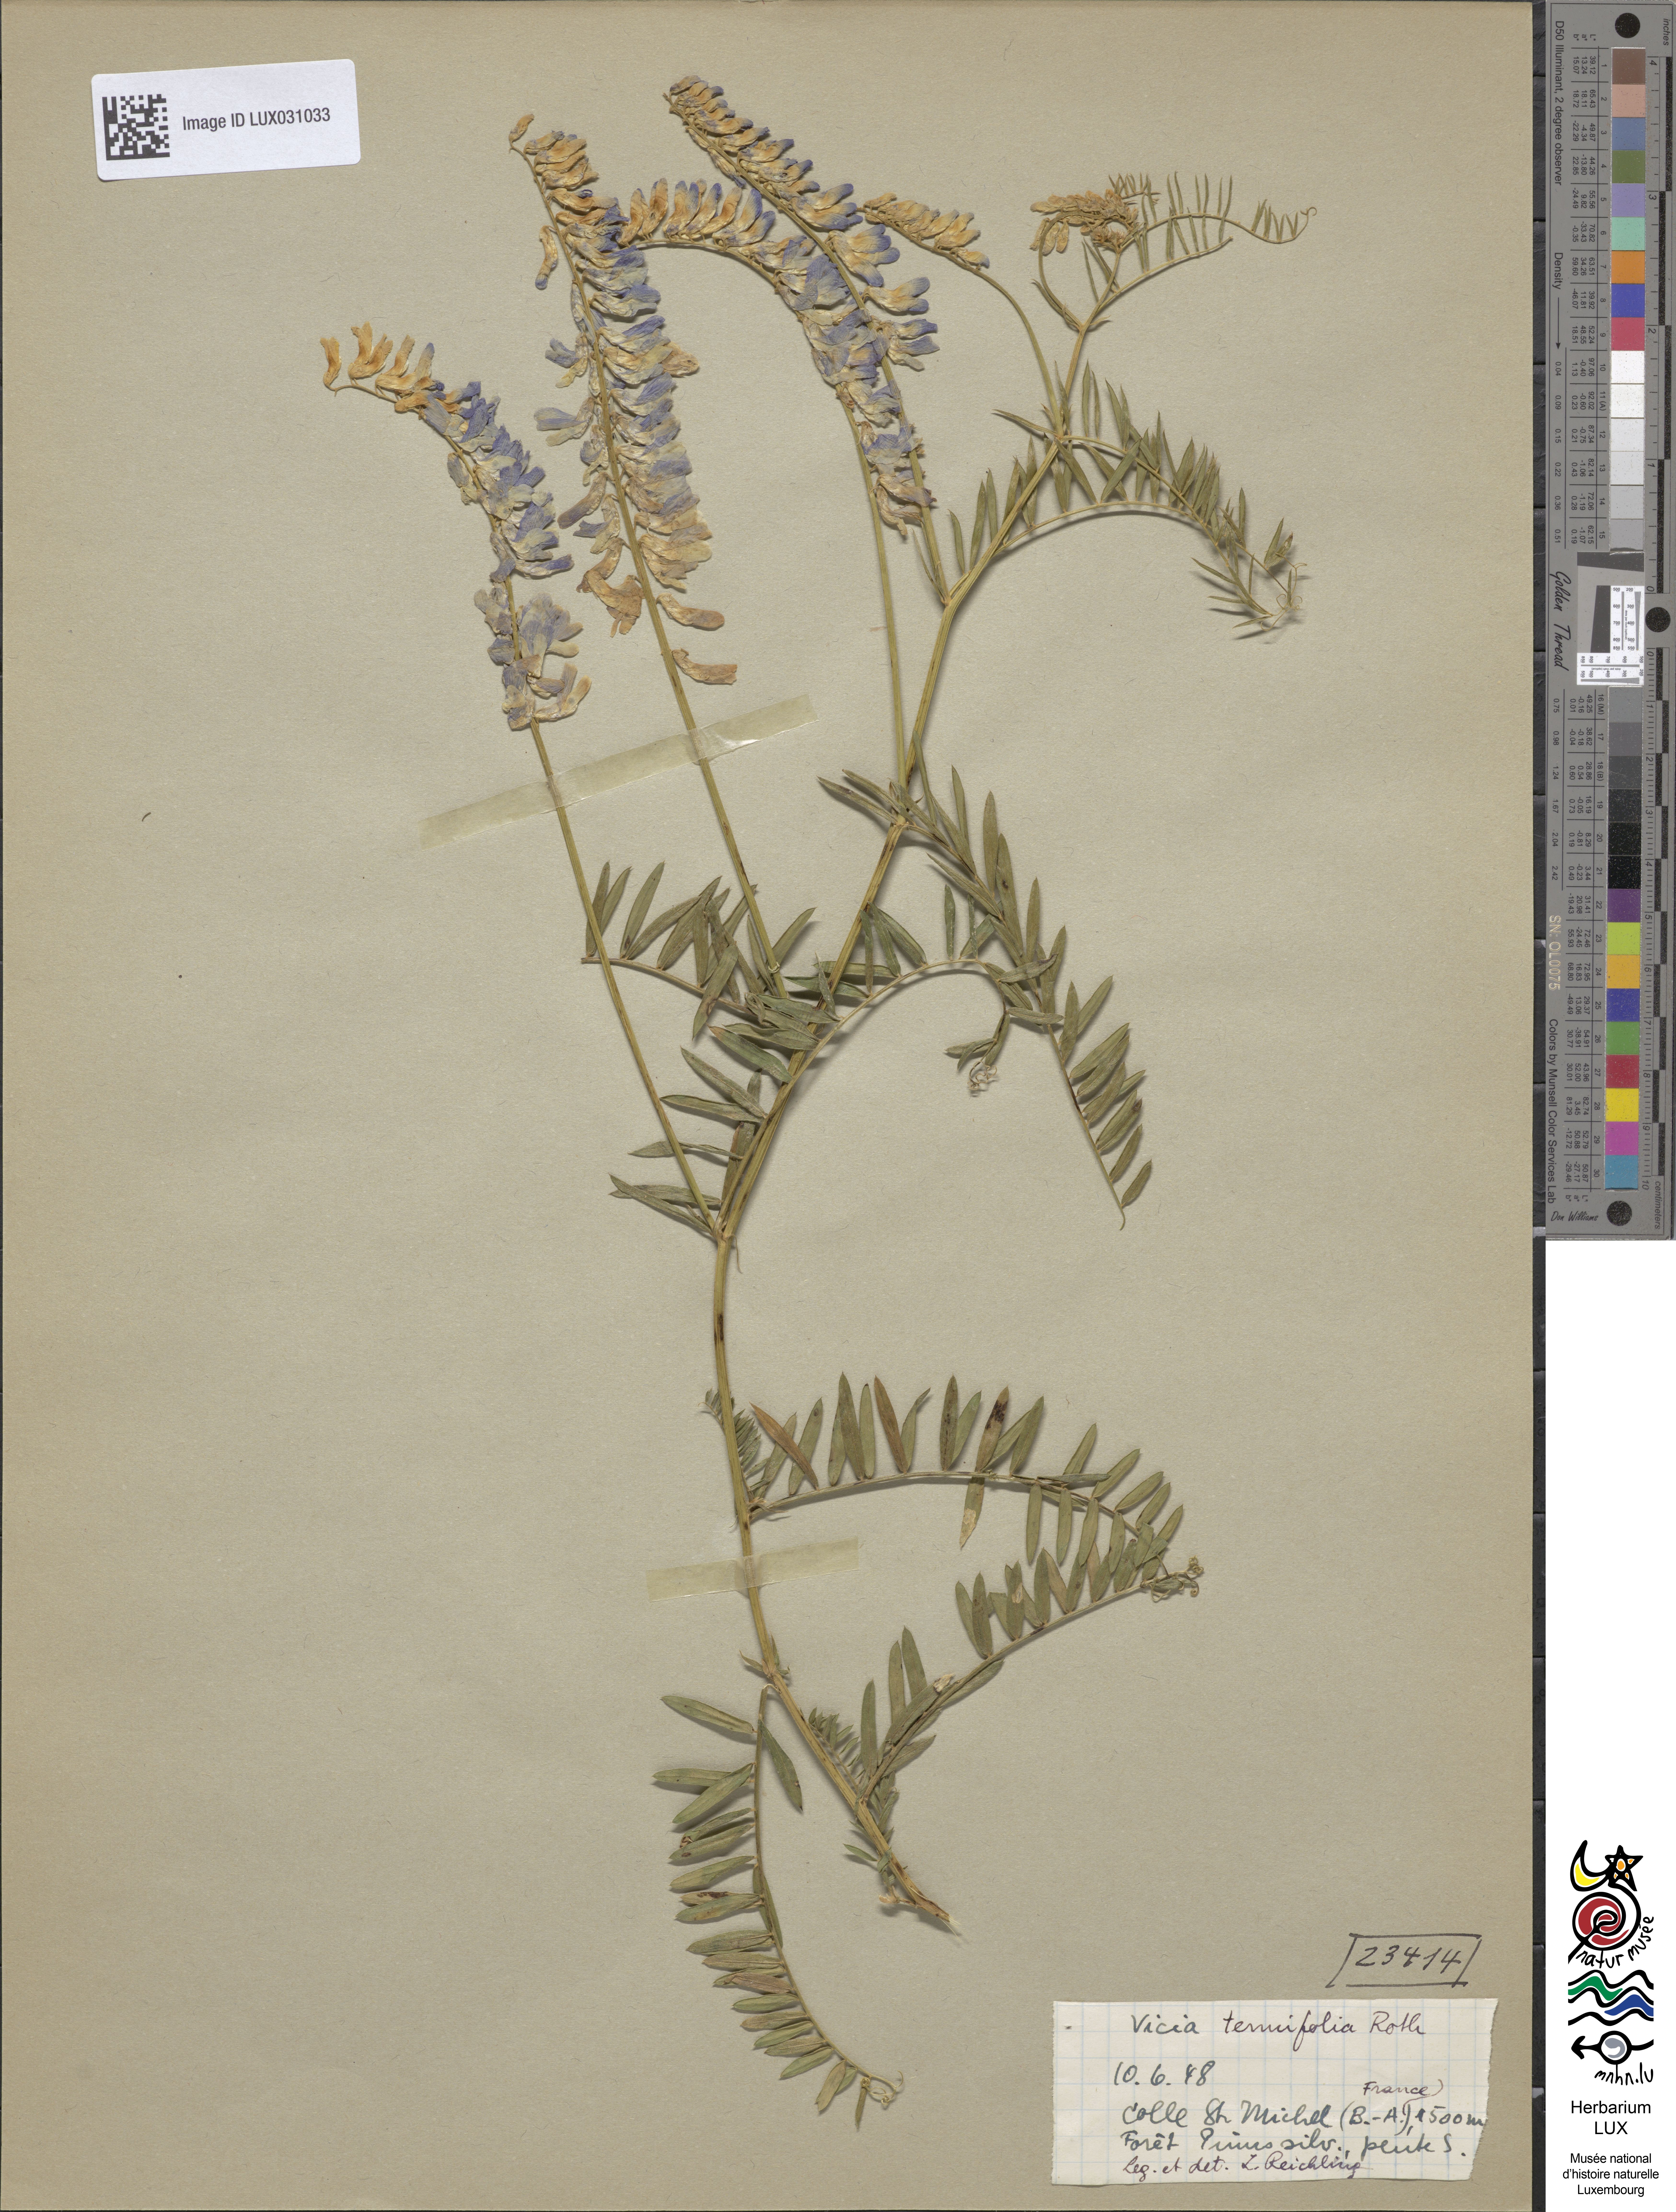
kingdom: Plantae
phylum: Tracheophyta
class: Magnoliopsida
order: Fabales
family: Fabaceae
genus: Vicia
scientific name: Vicia tenuifolia
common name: Fine-leaved vetch
